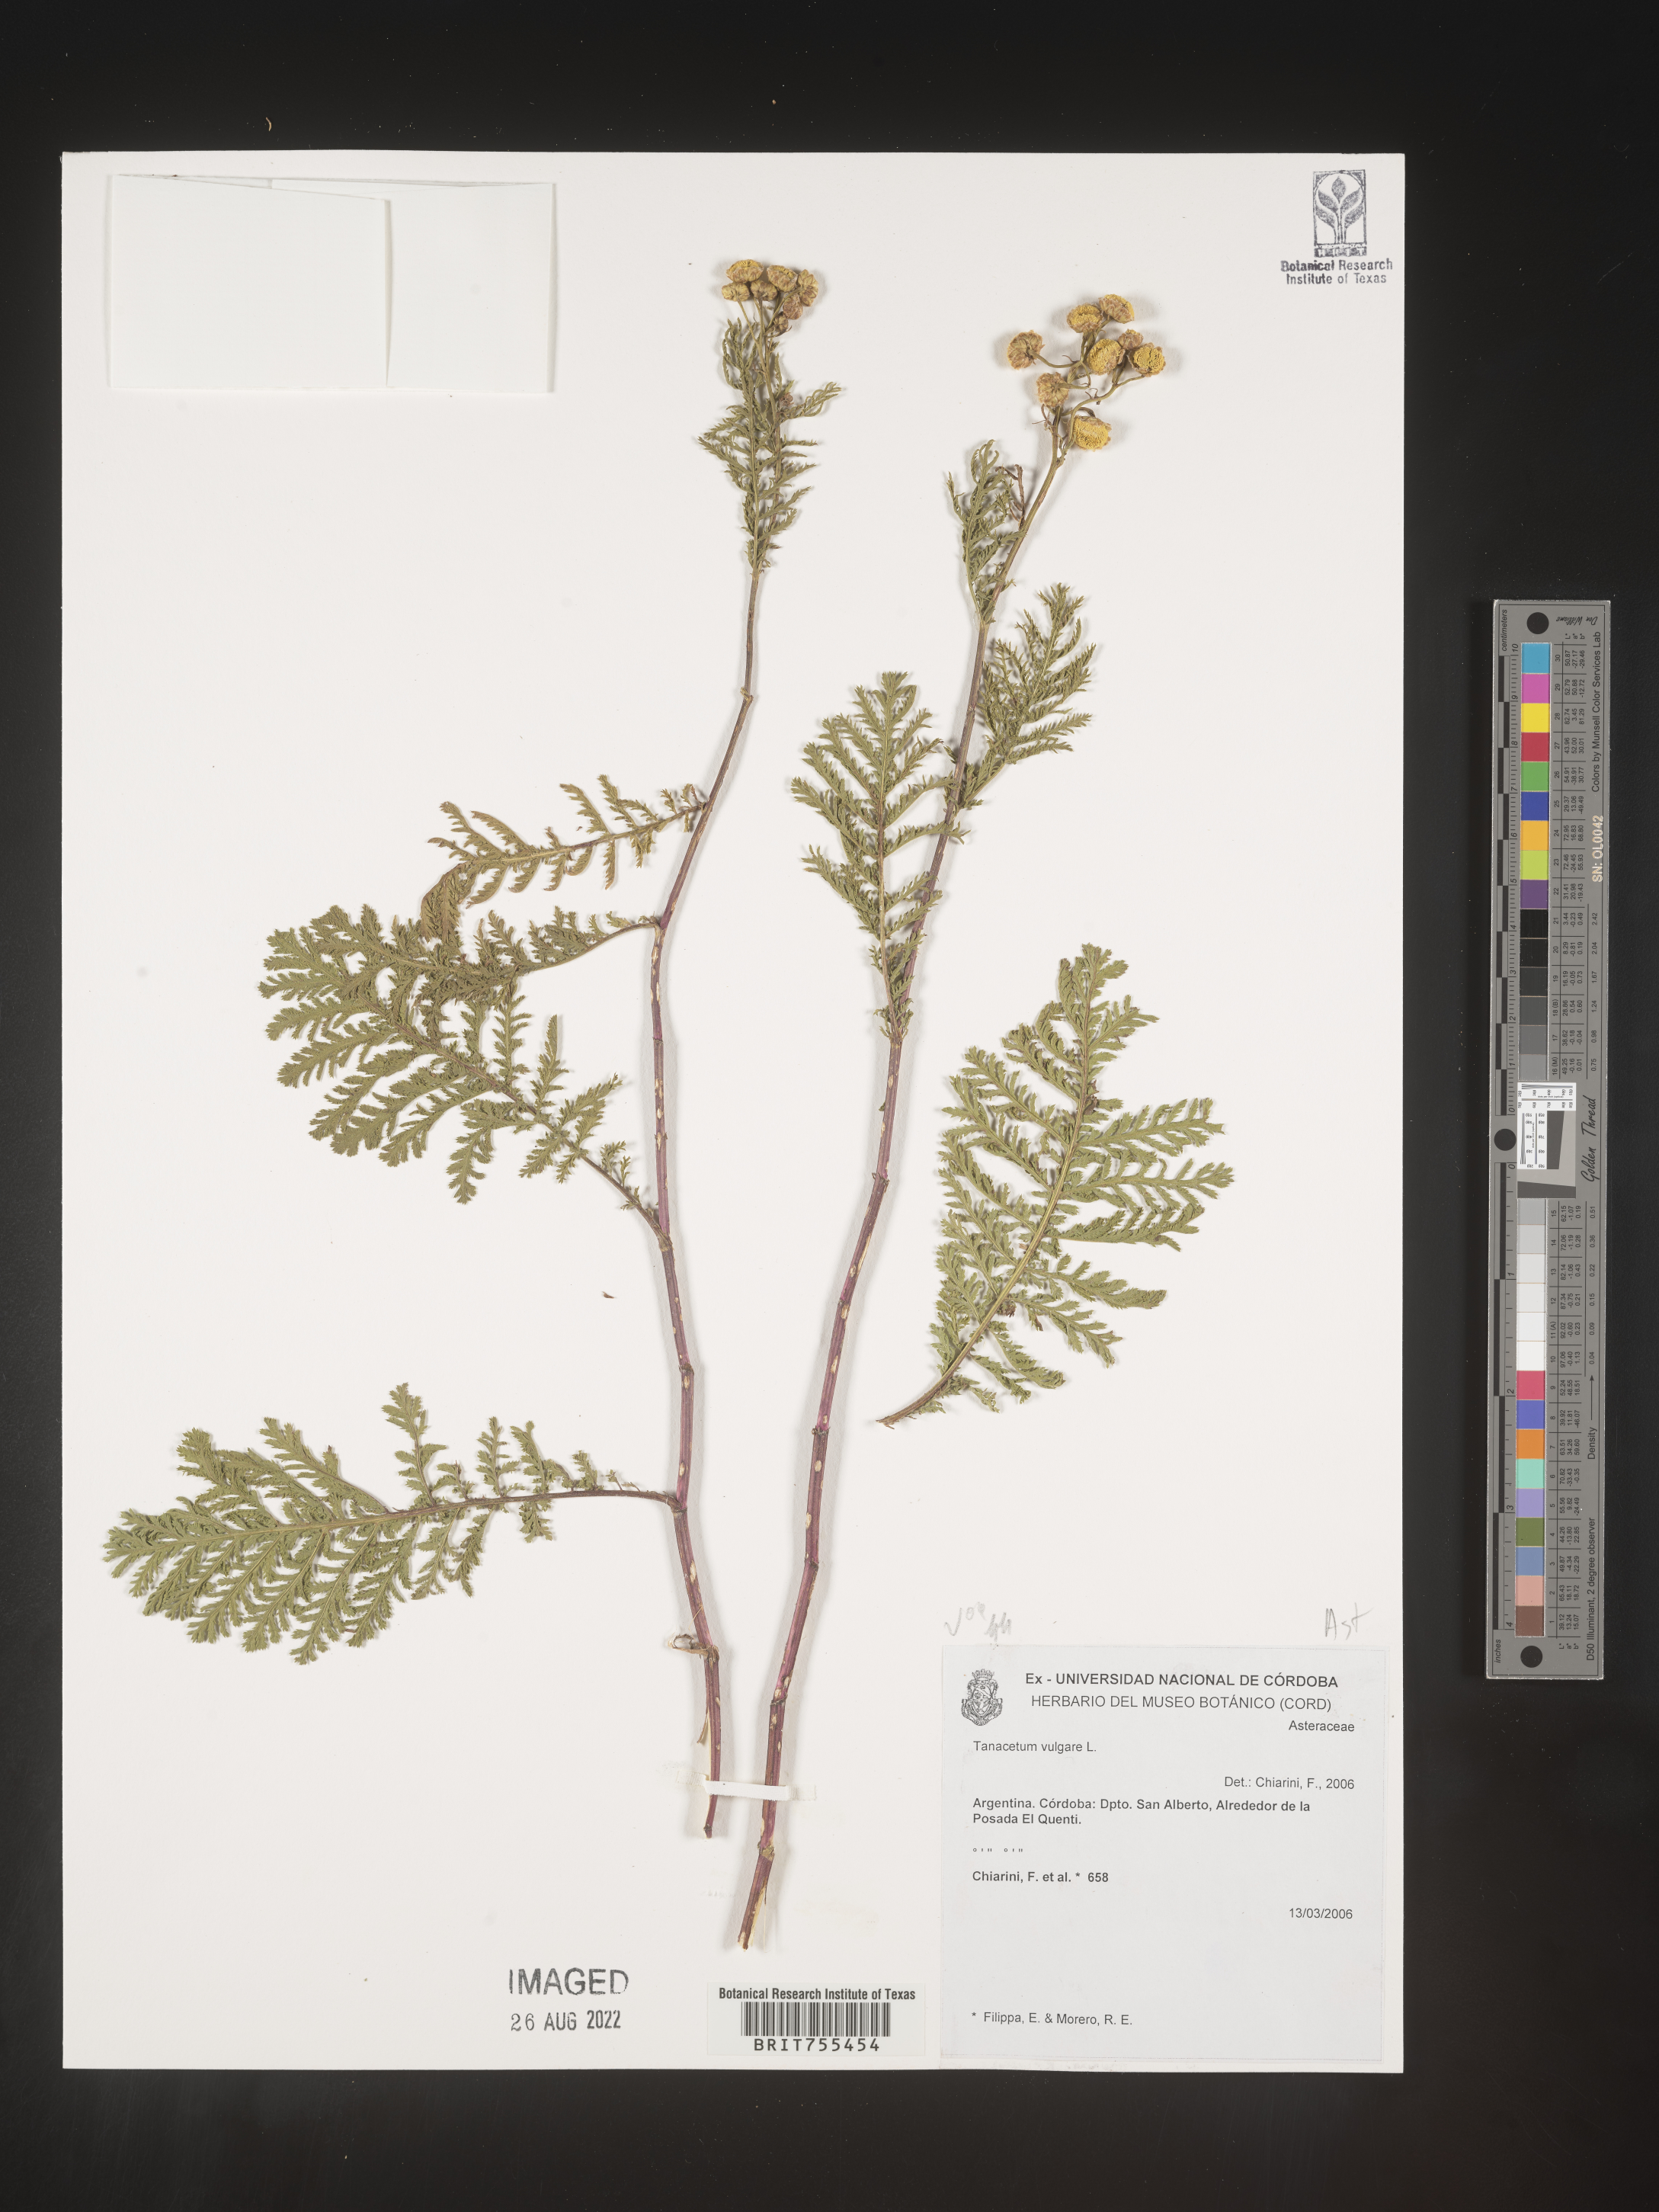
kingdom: Plantae
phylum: Tracheophyta
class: Magnoliopsida
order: Asterales
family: Asteraceae
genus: Tanacetum
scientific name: Tanacetum
